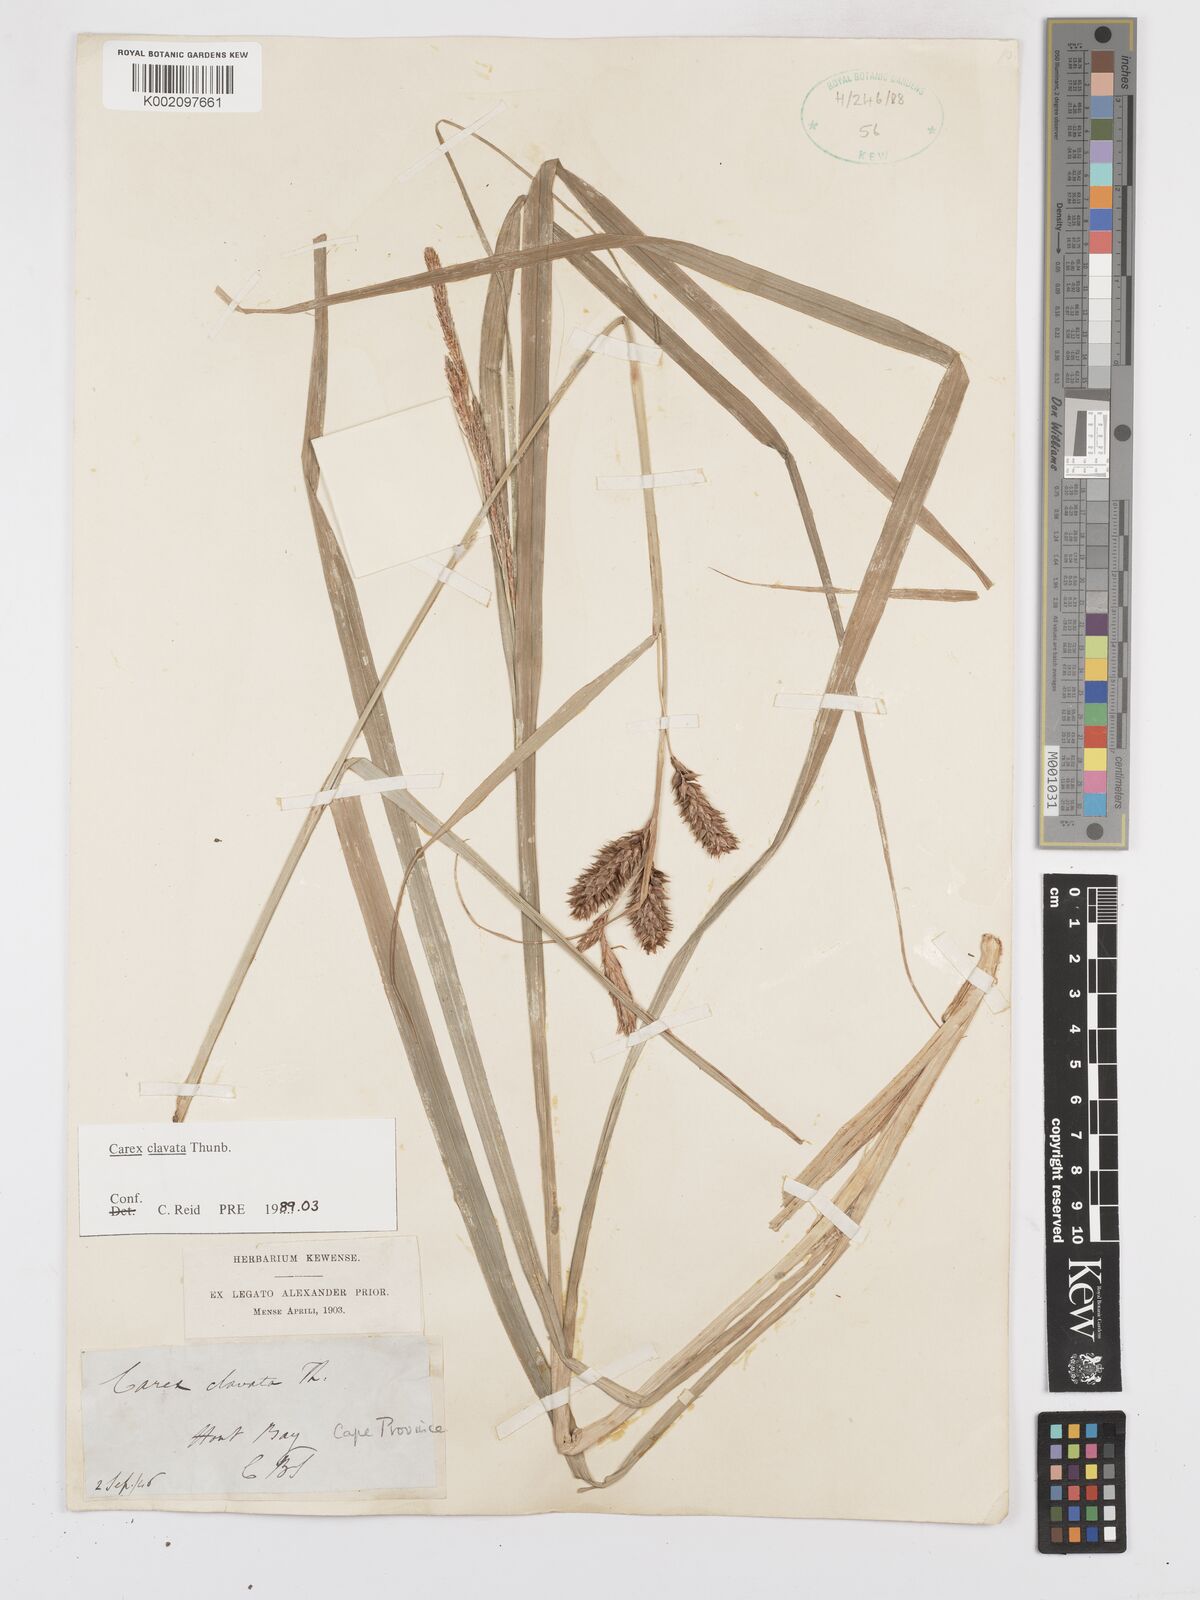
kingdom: Plantae
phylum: Tracheophyta
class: Liliopsida
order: Poales
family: Cyperaceae
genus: Carex
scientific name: Carex clavata
